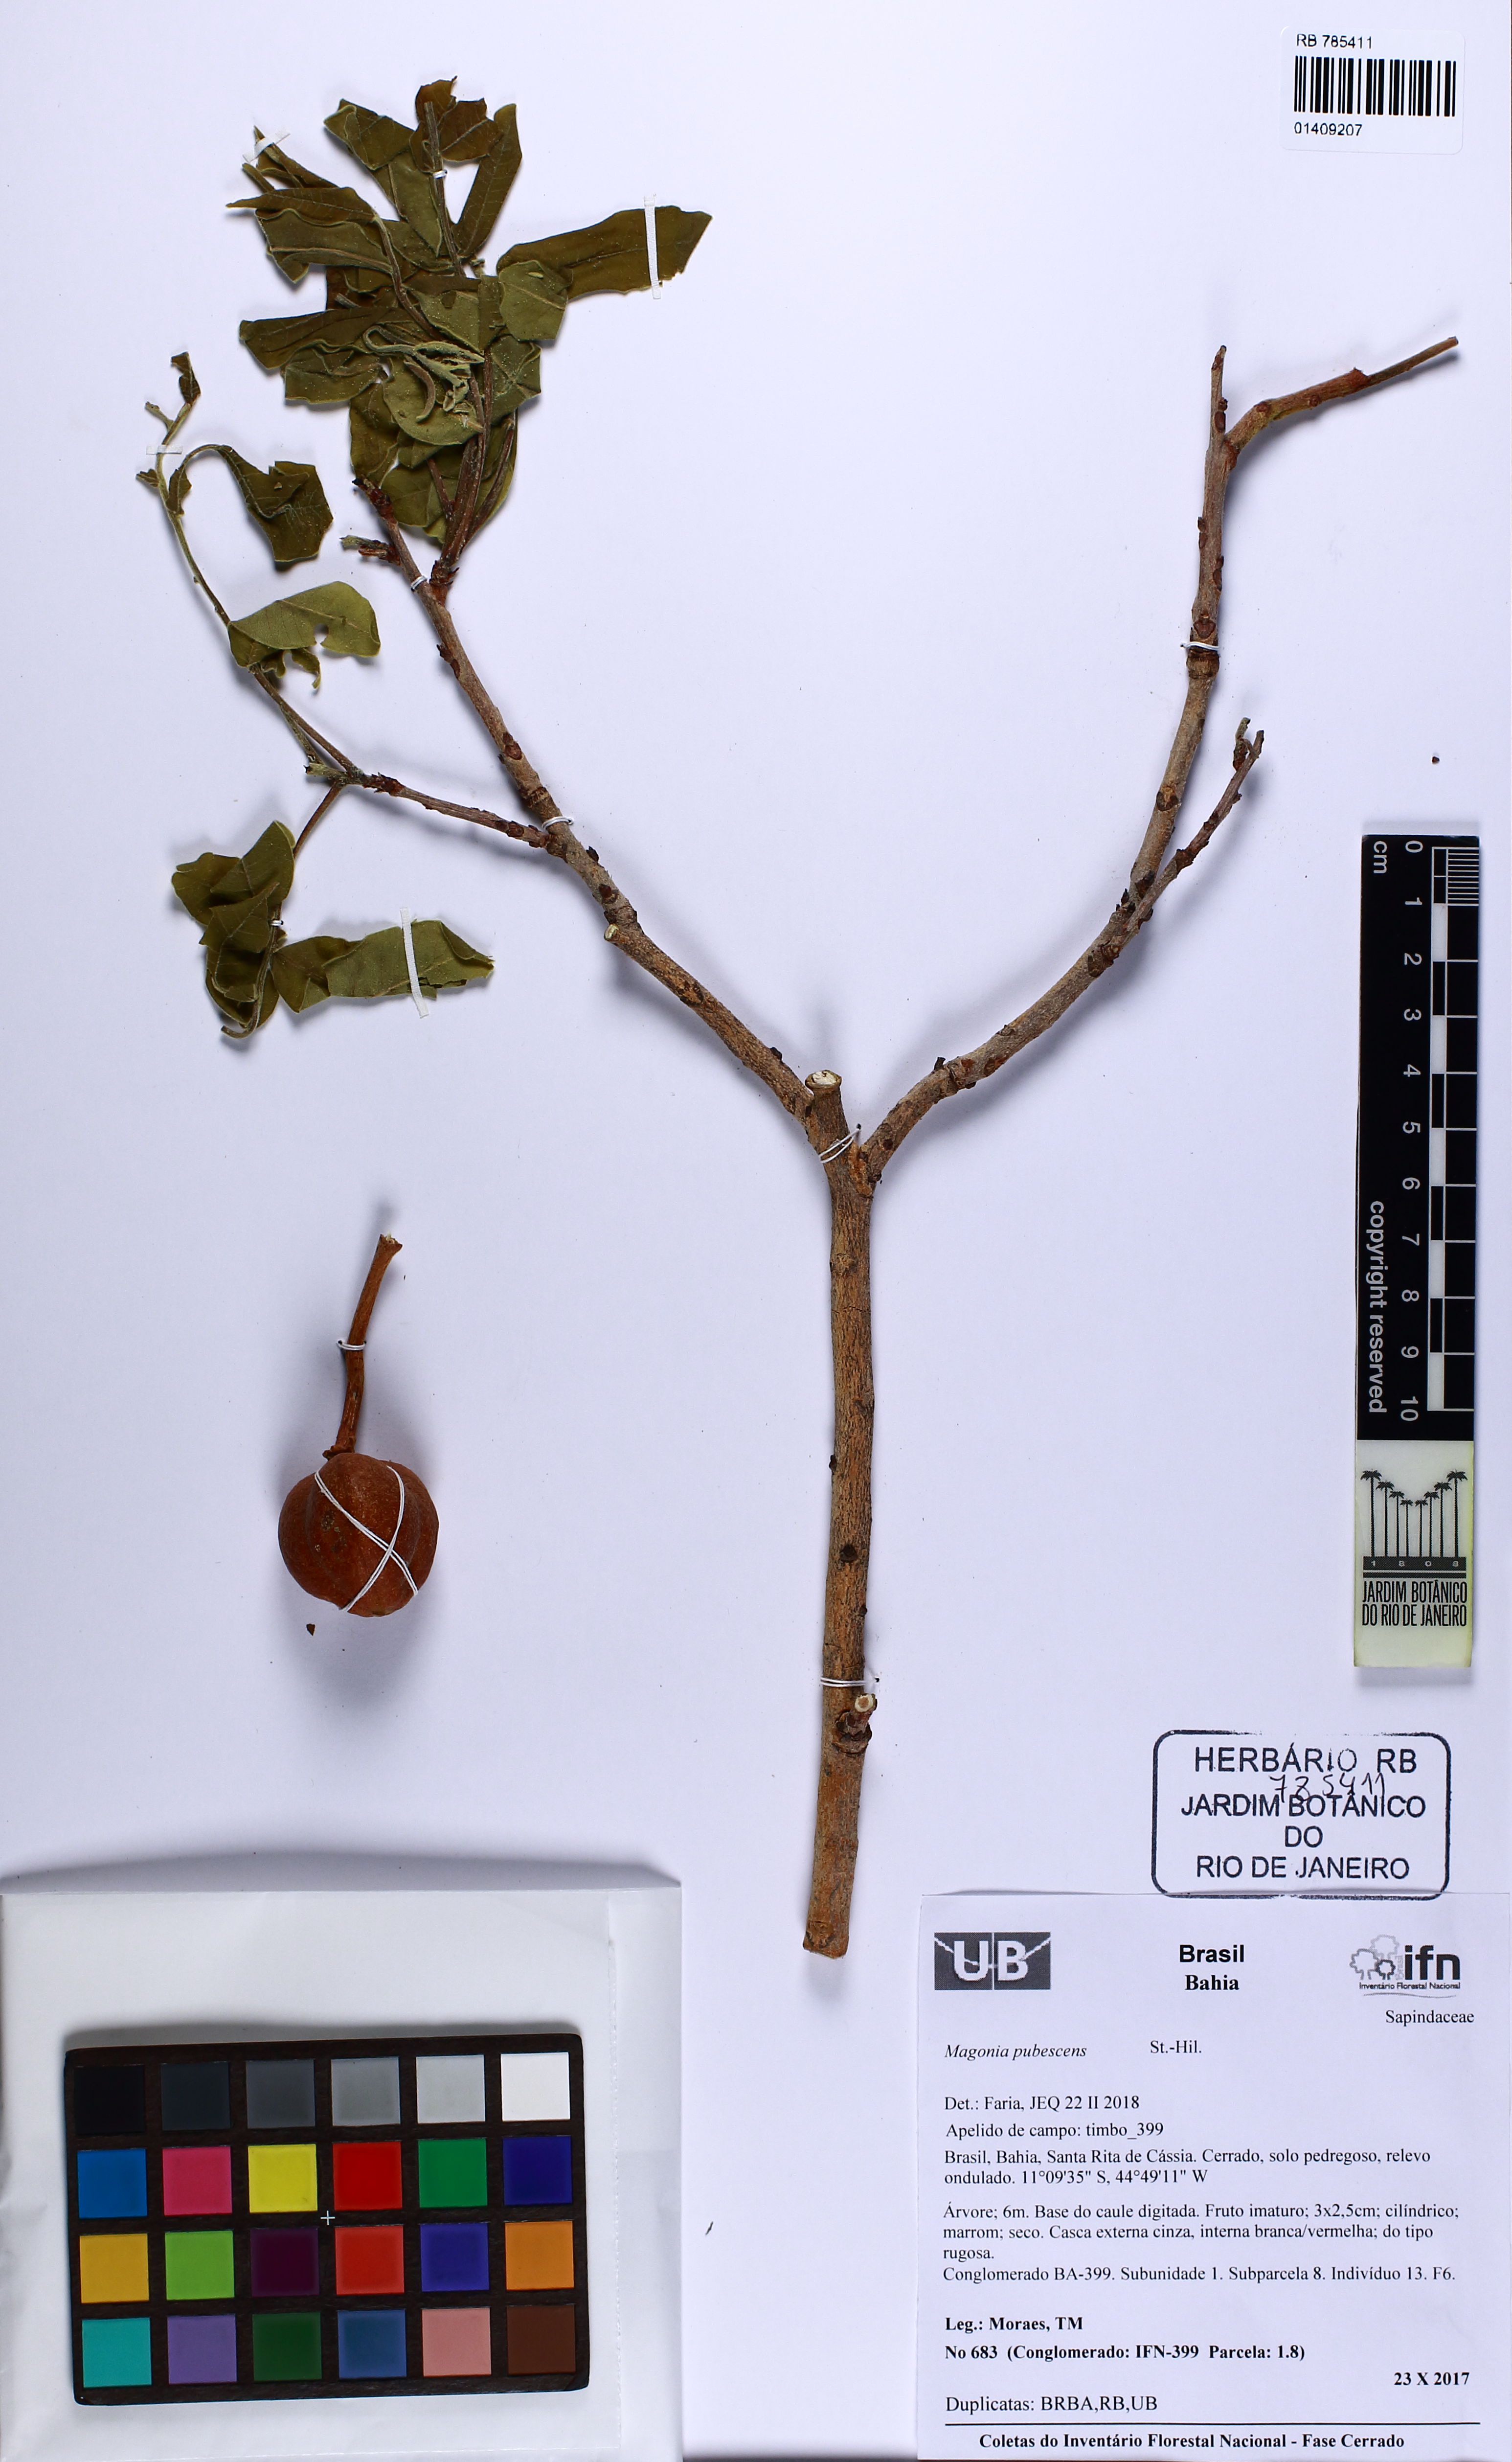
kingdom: Plantae
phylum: Tracheophyta
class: Magnoliopsida
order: Sapindales
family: Sapindaceae
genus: Magonia
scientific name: Magonia pubescens
